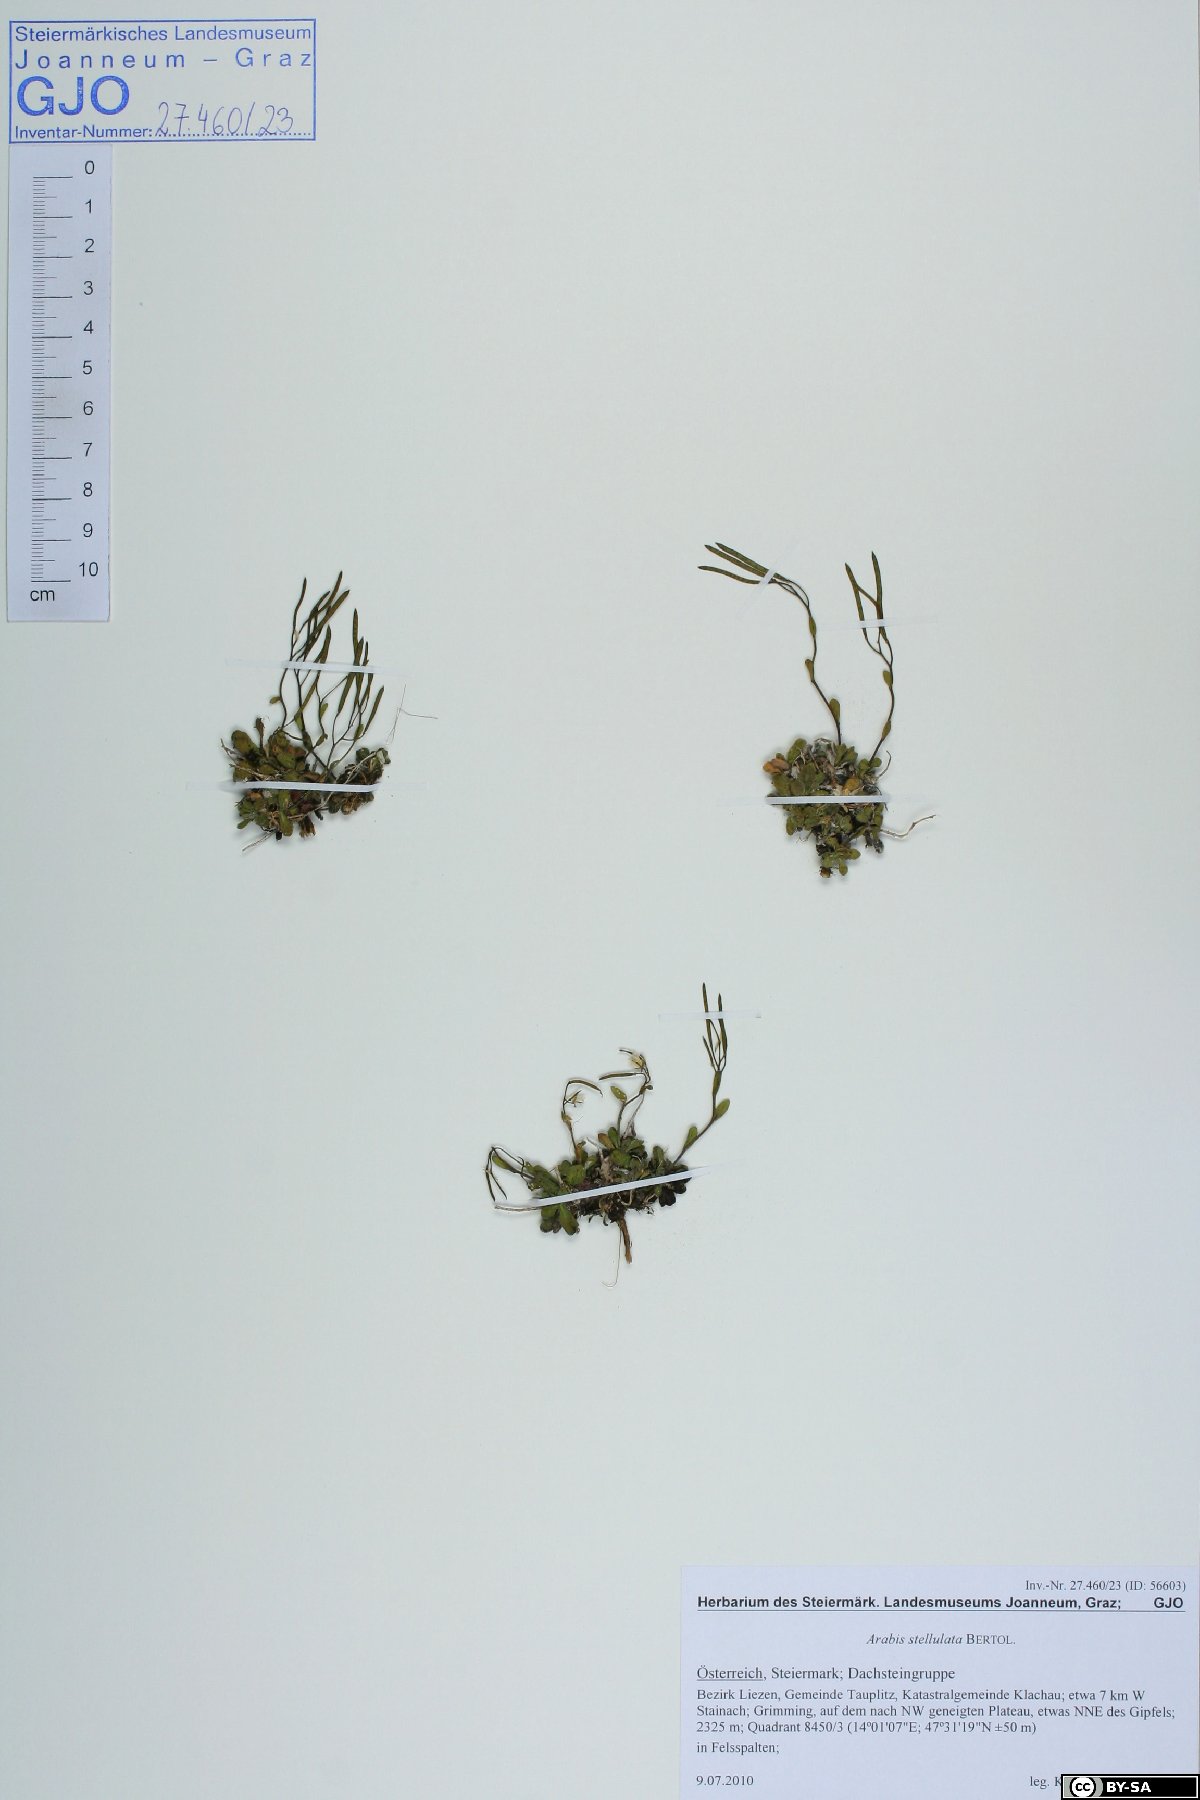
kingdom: Plantae
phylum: Tracheophyta
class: Magnoliopsida
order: Brassicales
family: Brassicaceae
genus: Arabis
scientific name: Arabis stellulata
